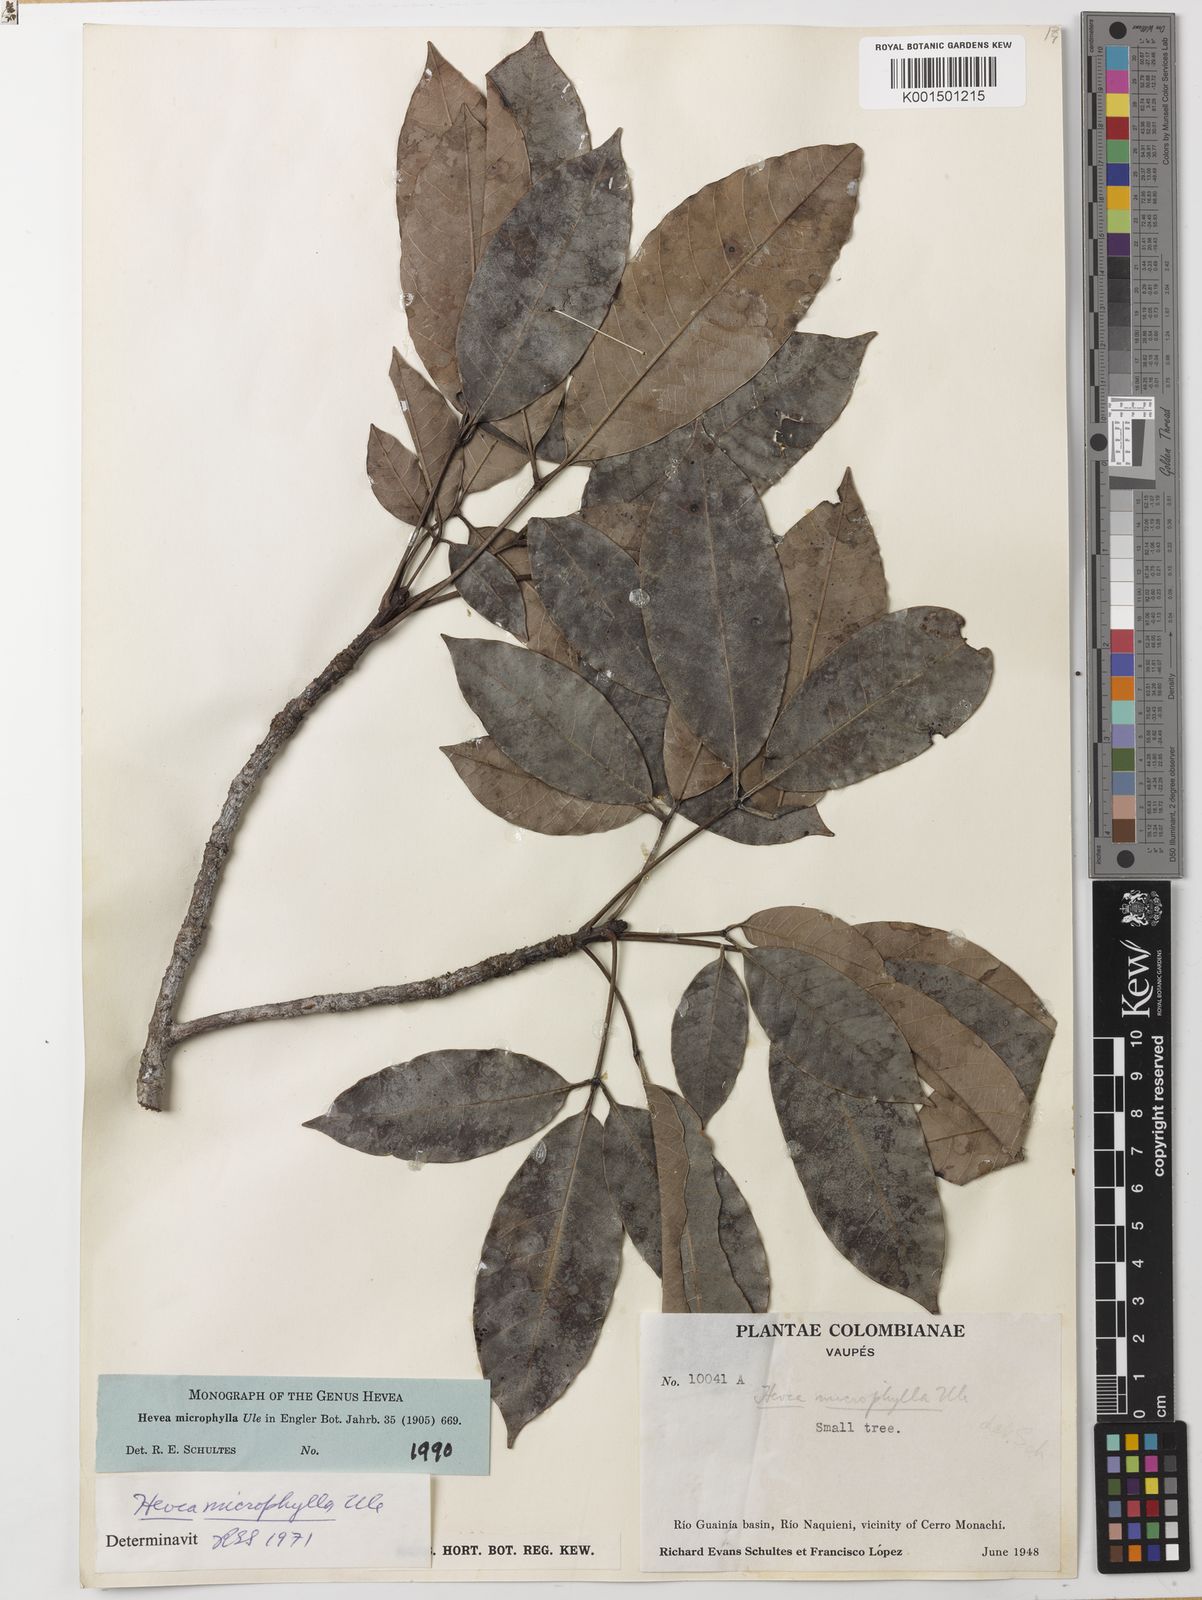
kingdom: Plantae
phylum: Tracheophyta
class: Magnoliopsida
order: Malpighiales
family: Euphorbiaceae
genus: Hevea
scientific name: Hevea microphylla
